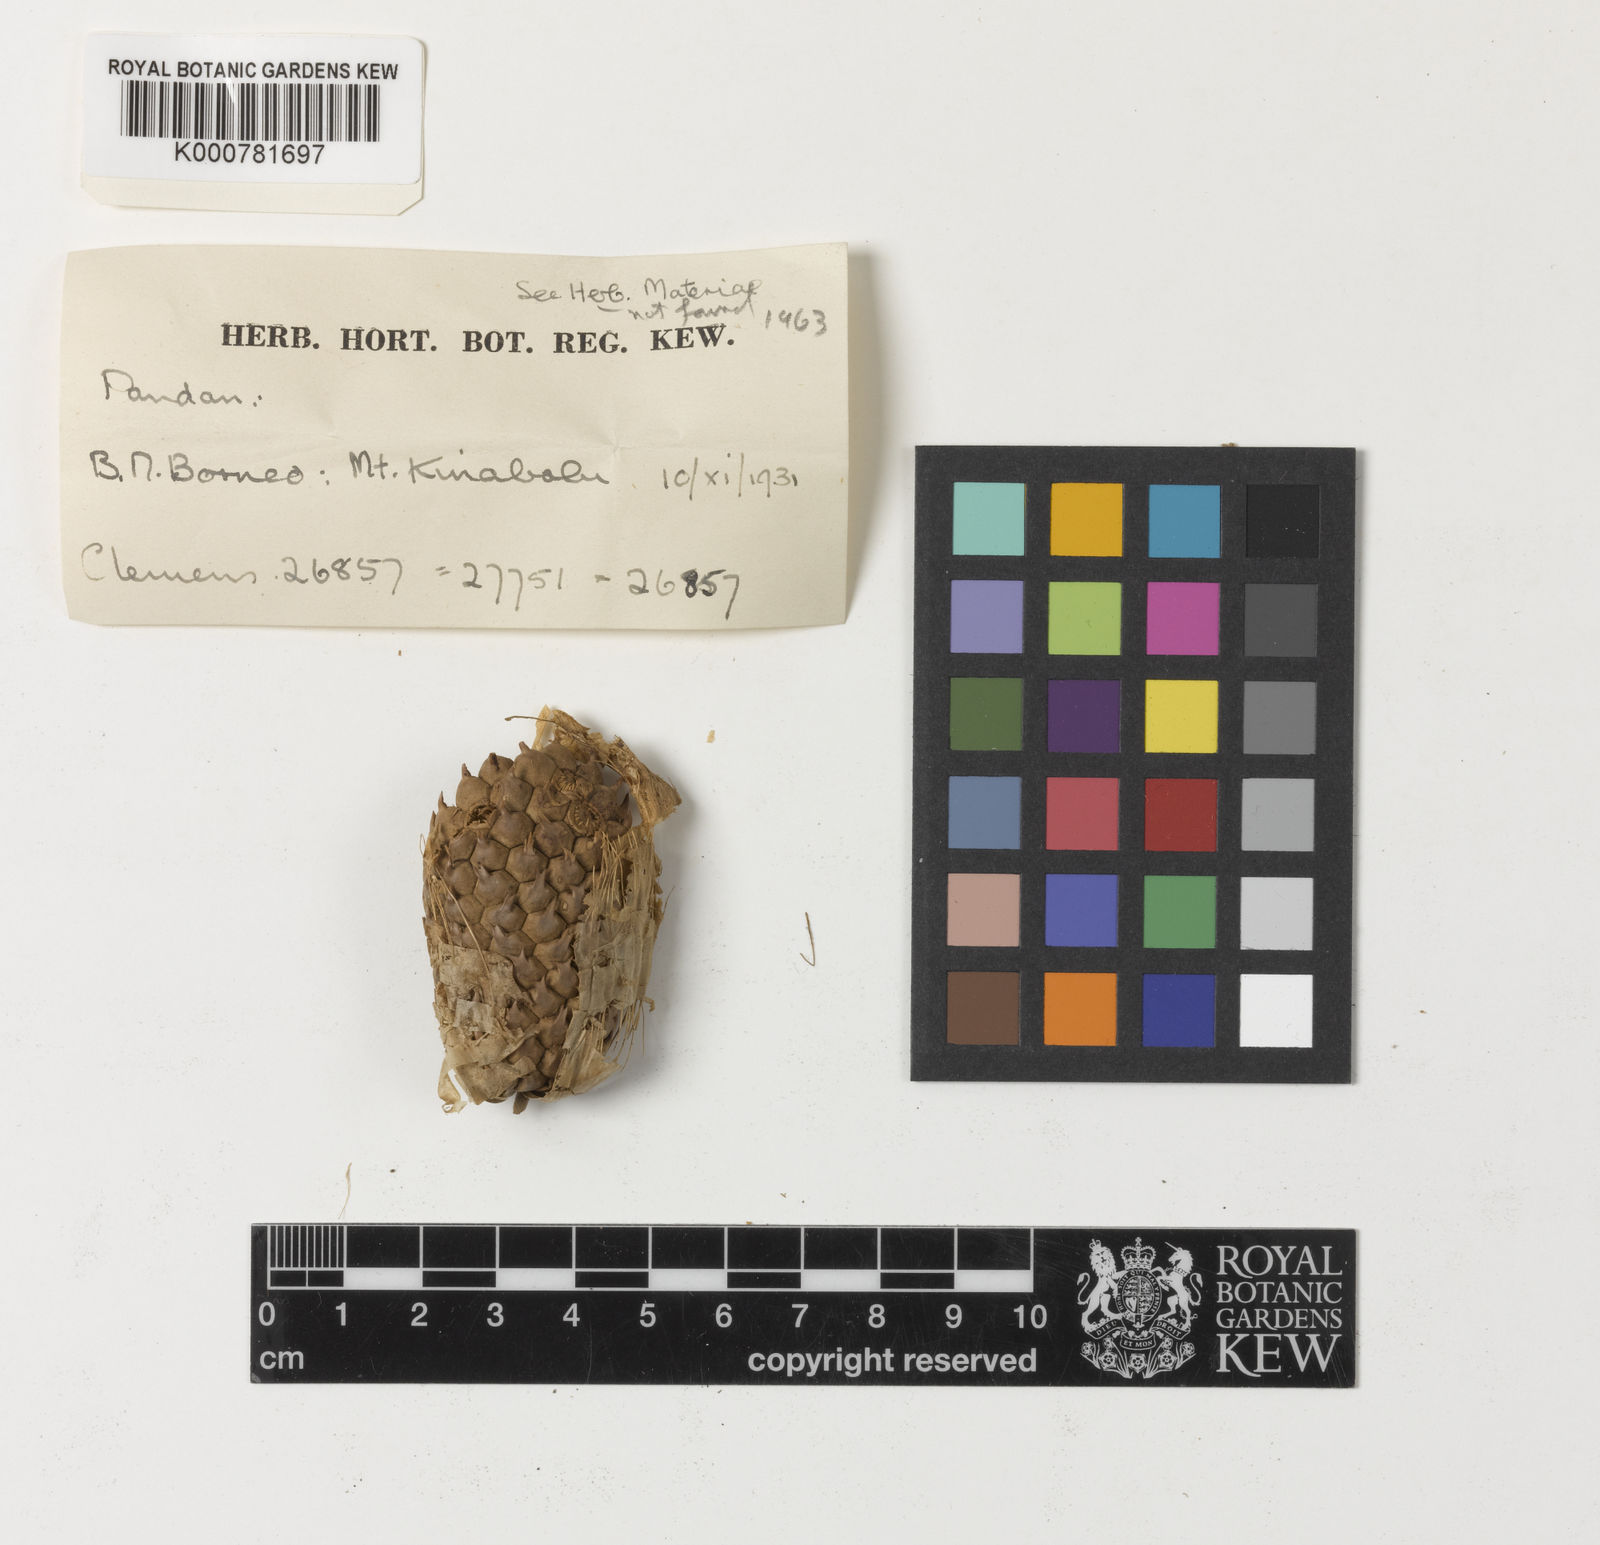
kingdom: Plantae
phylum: Tracheophyta
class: Liliopsida
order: Pandanales
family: Pandanaceae
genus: Pandanus
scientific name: Pandanus
